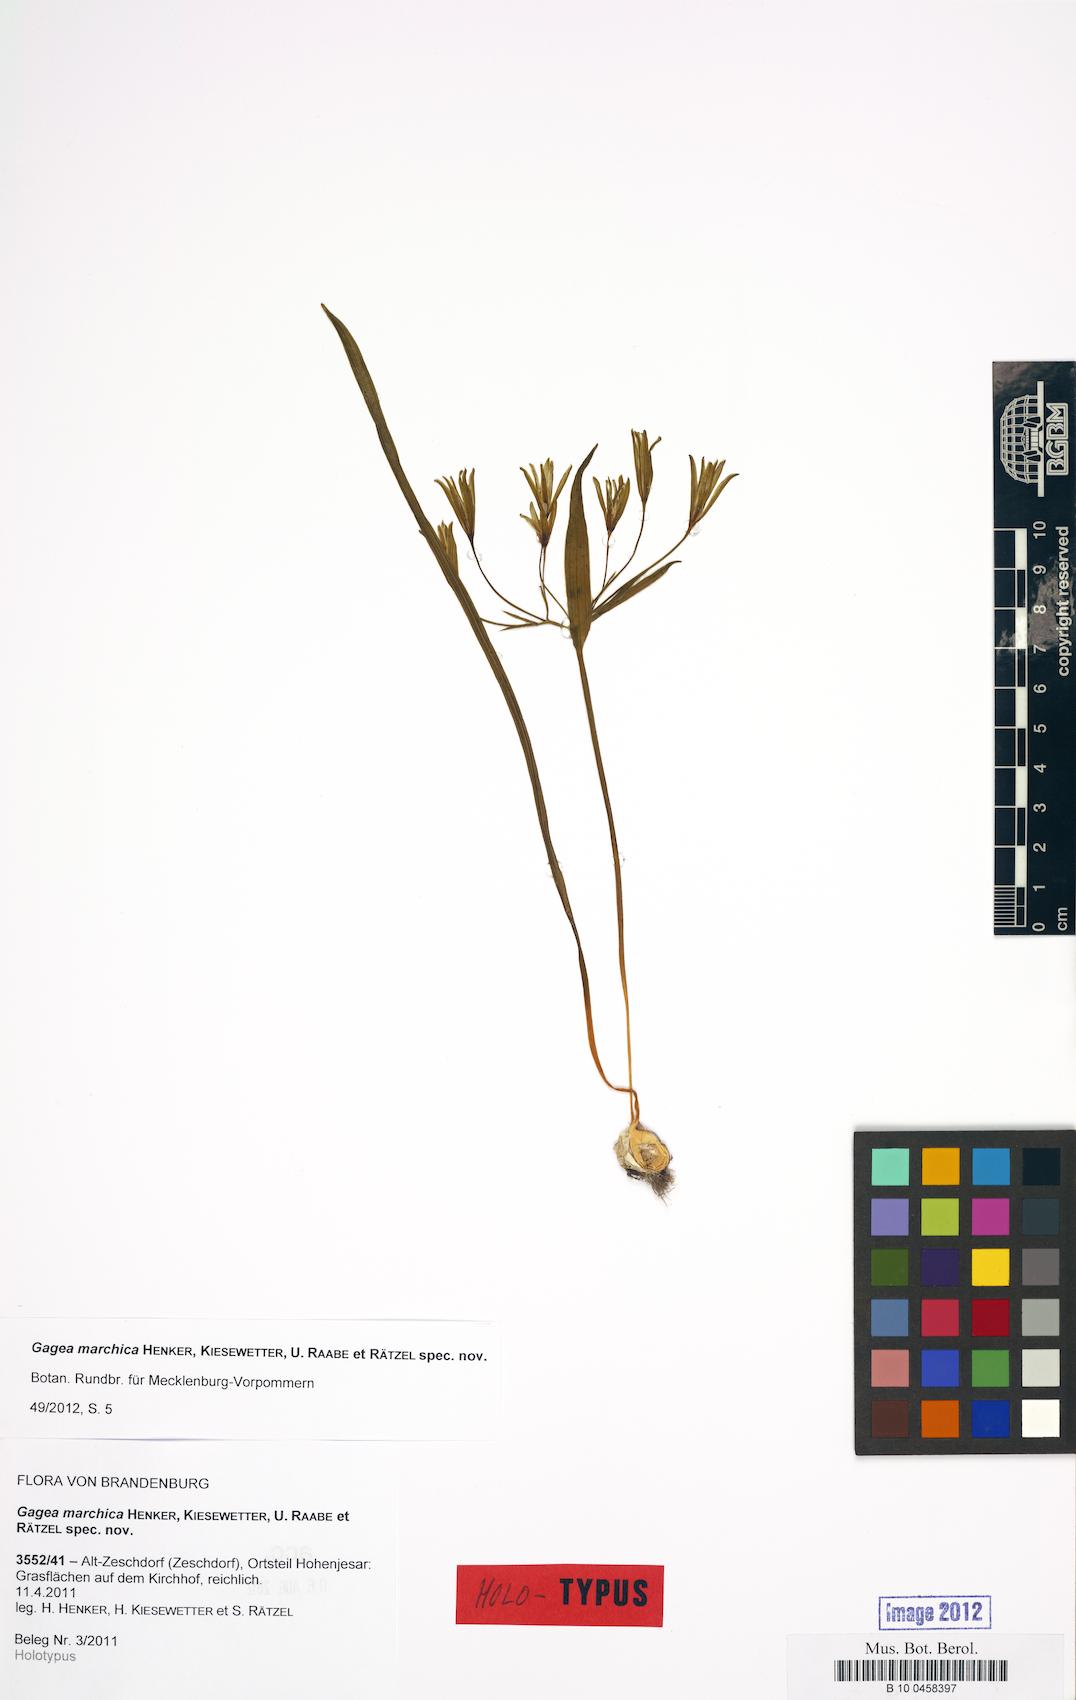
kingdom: Plantae
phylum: Tracheophyta
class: Liliopsida
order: Liliales
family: Liliaceae
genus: Gagea
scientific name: Gagea marchica
